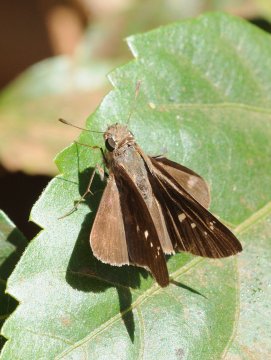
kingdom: Animalia
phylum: Arthropoda
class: Insecta
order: Lepidoptera
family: Hesperiidae
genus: Borbo
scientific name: Borbo
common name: Swifts
